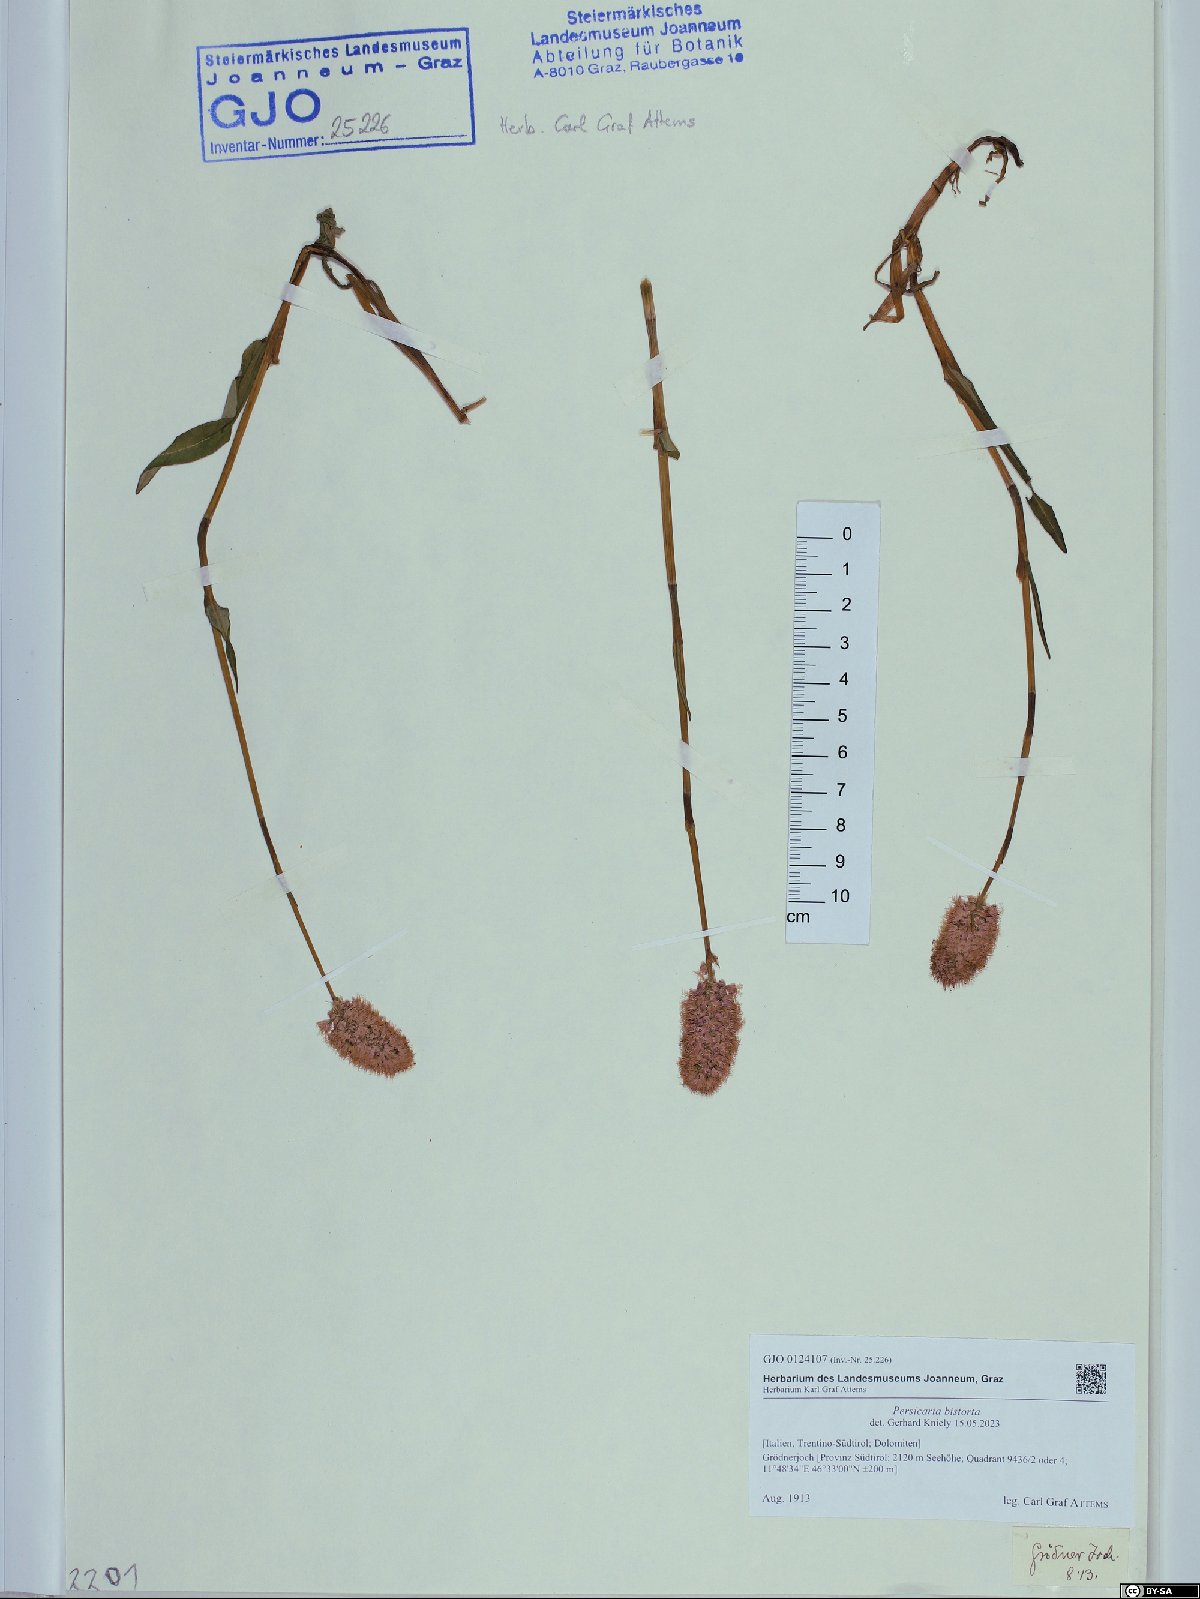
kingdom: Plantae
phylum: Tracheophyta
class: Magnoliopsida
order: Caryophyllales
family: Polygonaceae
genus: Bistorta
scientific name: Bistorta officinalis
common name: Common bistort
